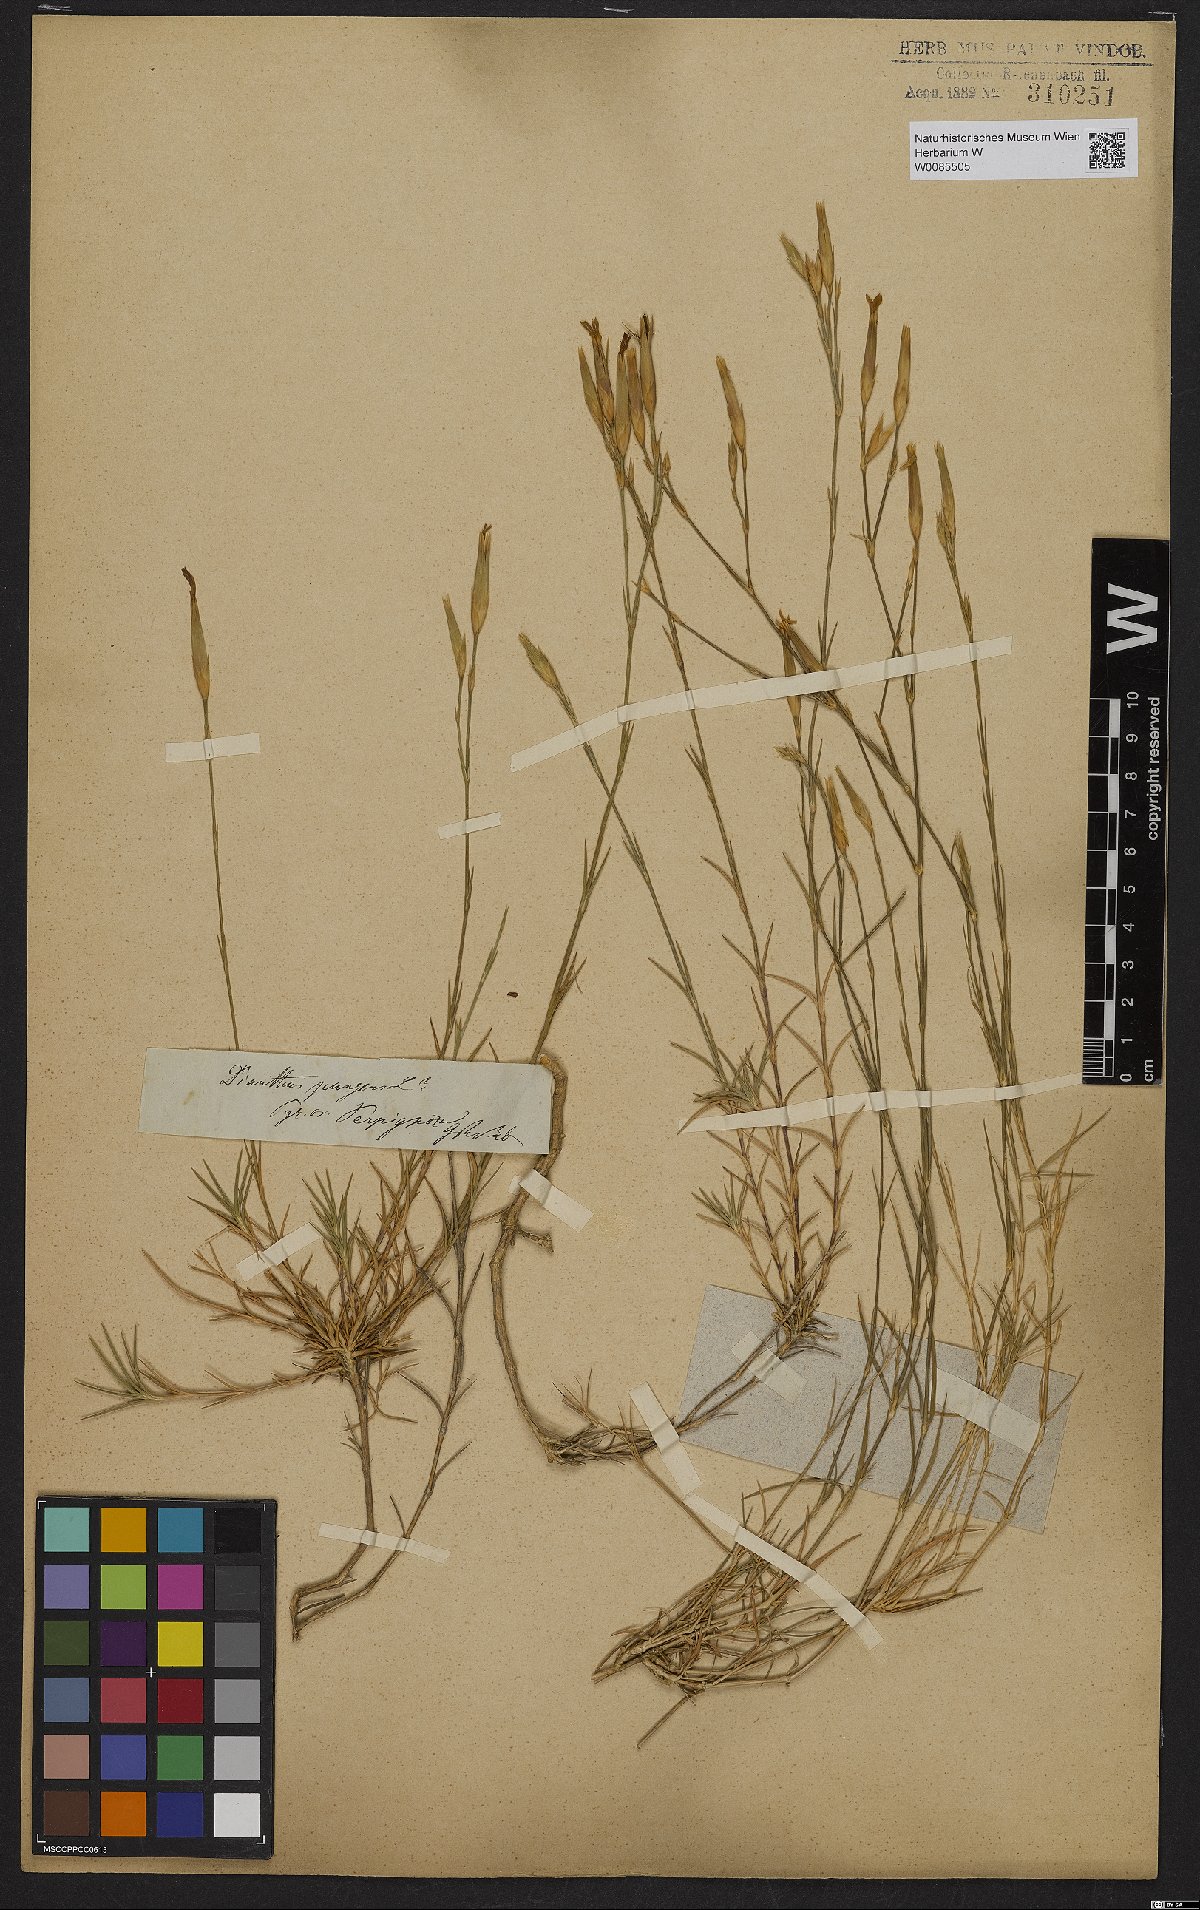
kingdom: Plantae
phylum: Tracheophyta
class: Magnoliopsida
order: Caryophyllales
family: Caryophyllaceae
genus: Dianthus
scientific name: Dianthus pungens
